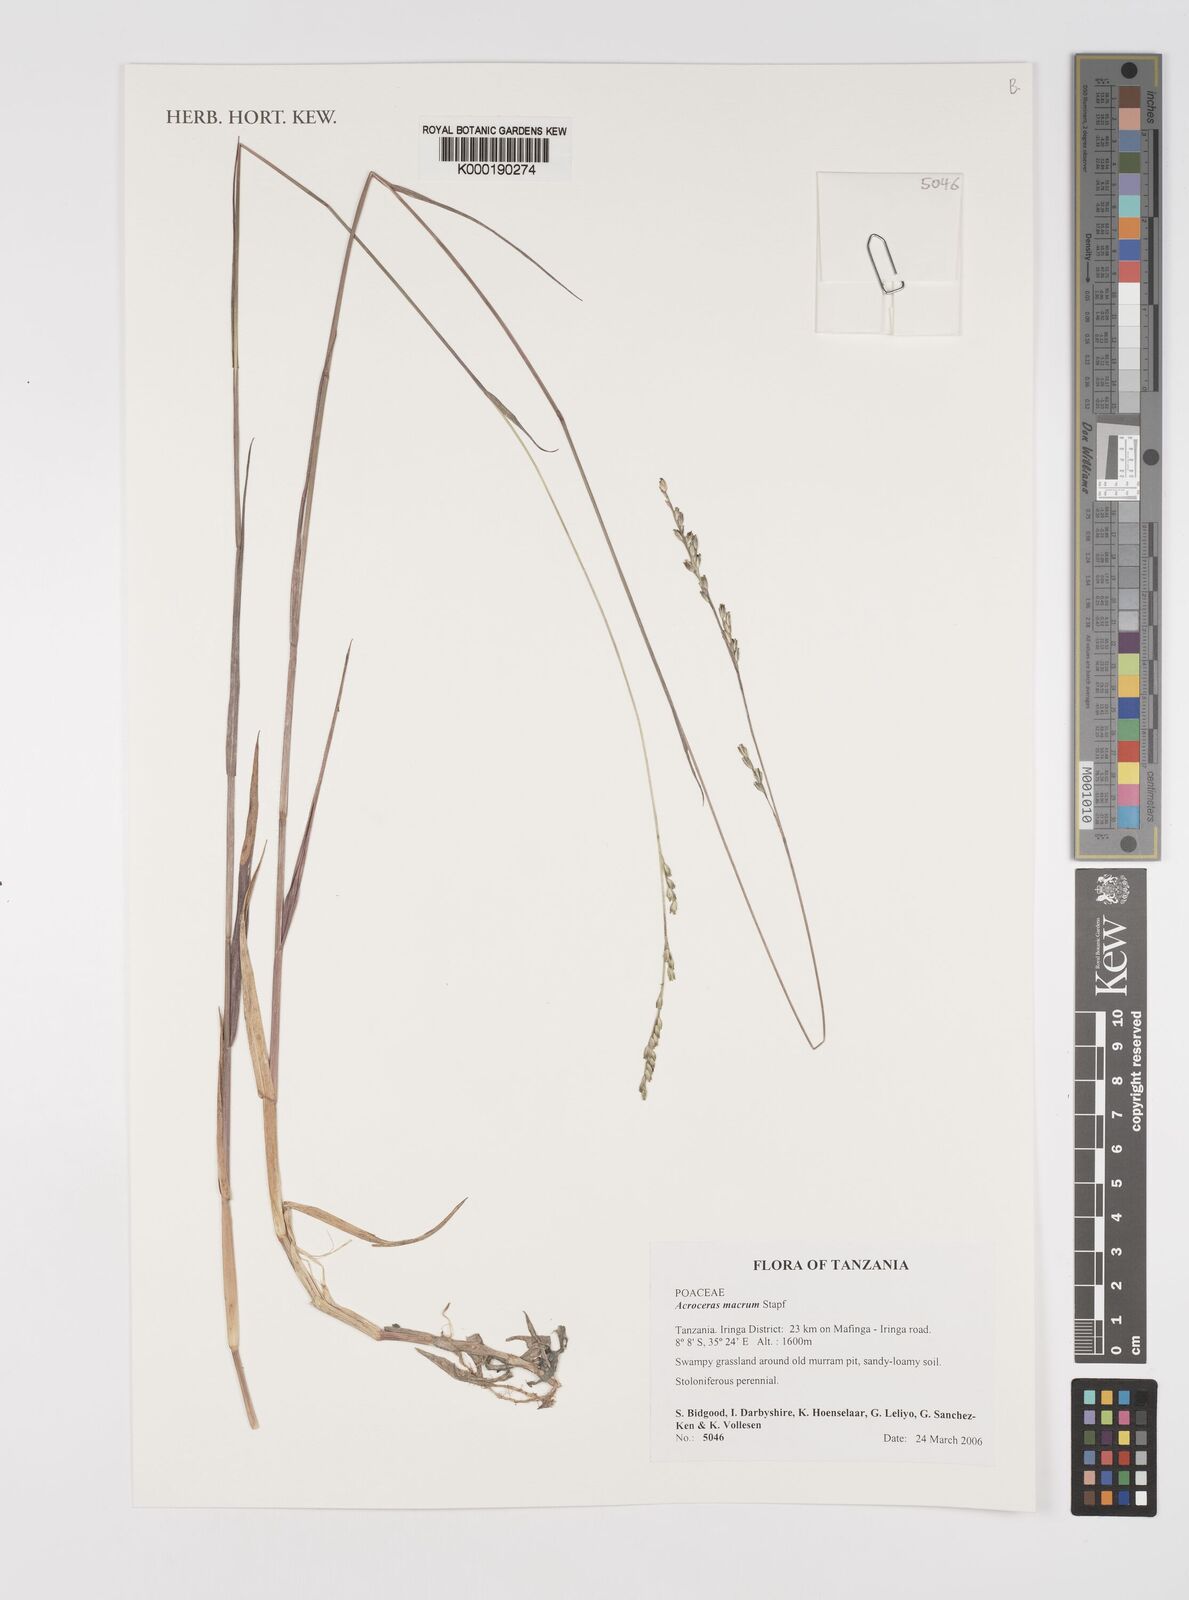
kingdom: Plantae
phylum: Tracheophyta
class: Liliopsida
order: Poales
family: Poaceae
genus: Acroceras
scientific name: Acroceras macrum
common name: Nyl grass
